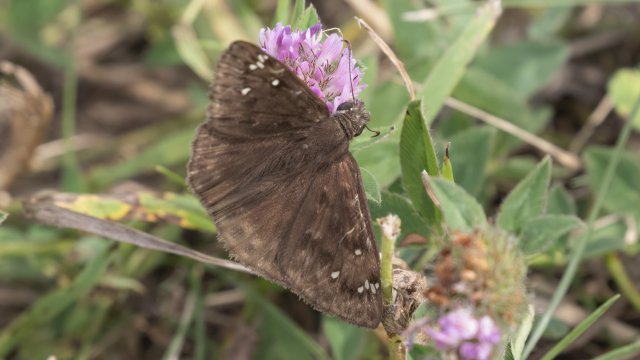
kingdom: Animalia
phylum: Arthropoda
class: Insecta
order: Lepidoptera
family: Hesperiidae
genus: Gesta
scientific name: Gesta
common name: Horace's Duskywing
